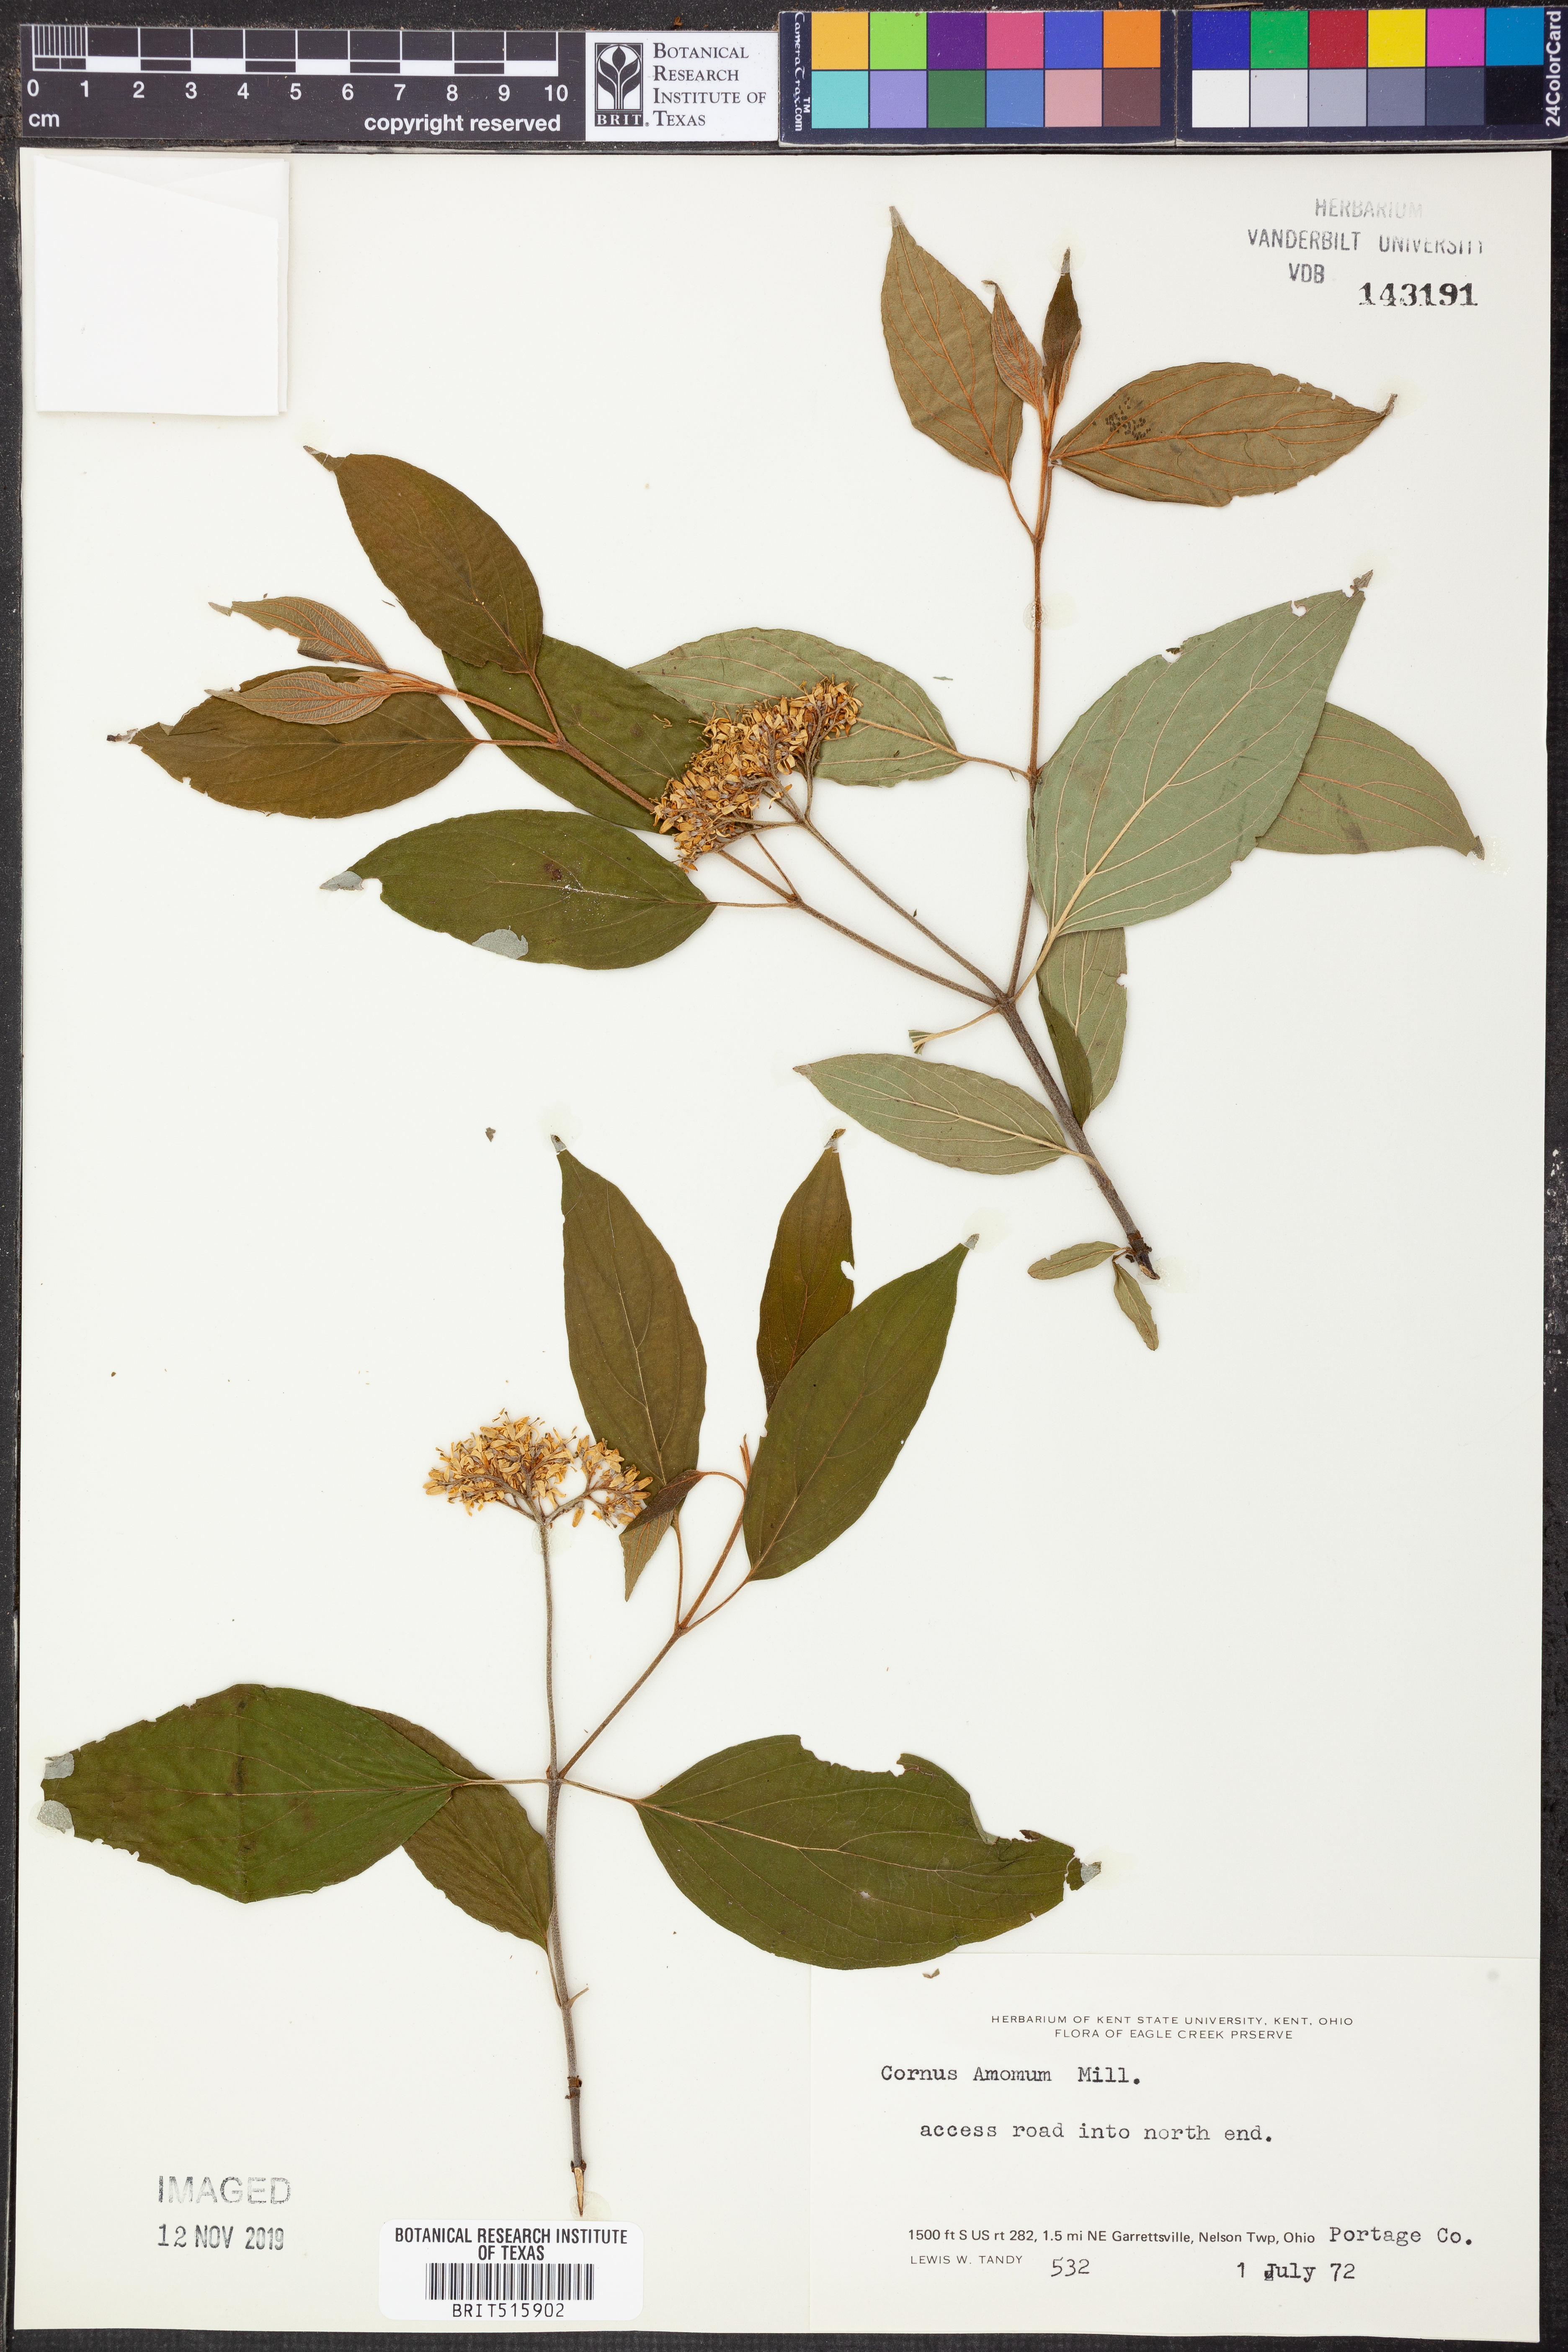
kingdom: Plantae
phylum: Tracheophyta
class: Magnoliopsida
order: Cornales
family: Cornaceae
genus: Cornus
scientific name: Cornus amomum
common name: Silky dogwood
